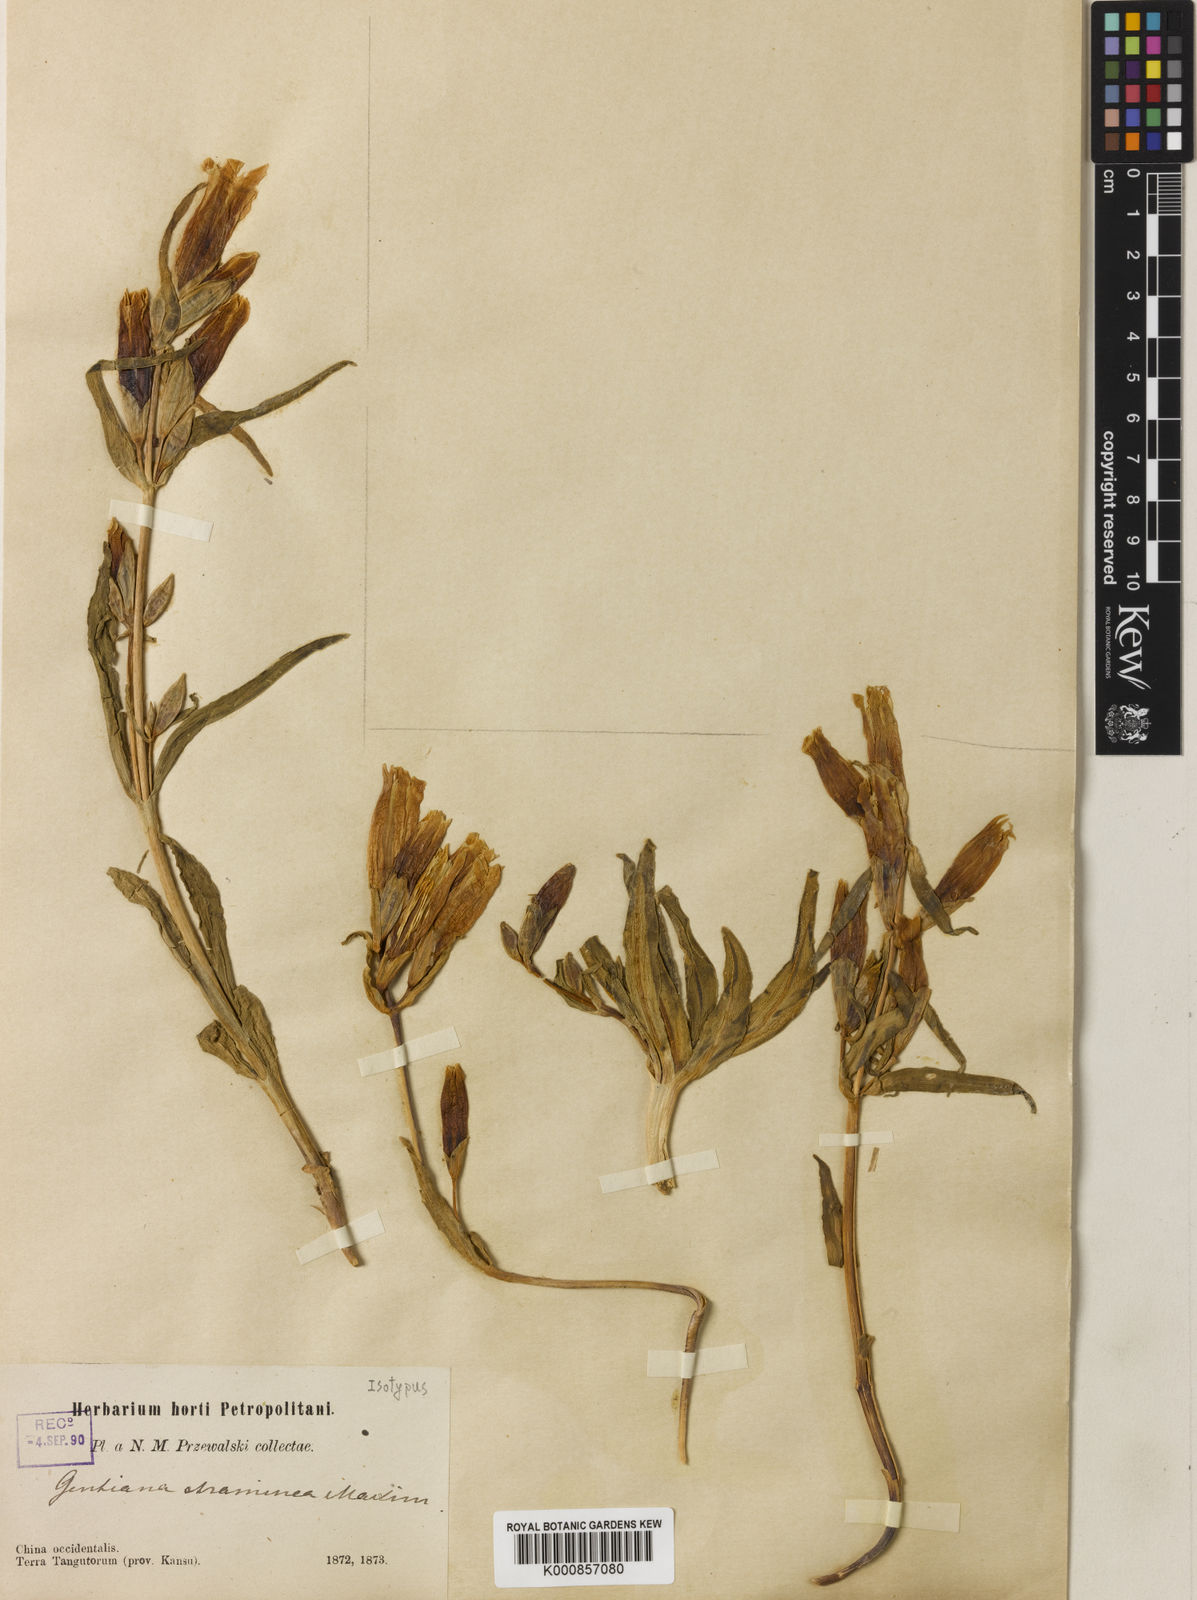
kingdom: Plantae
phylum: Tracheophyta
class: Magnoliopsida
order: Gentianales
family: Gentianaceae
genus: Gentiana
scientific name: Gentiana straminea
